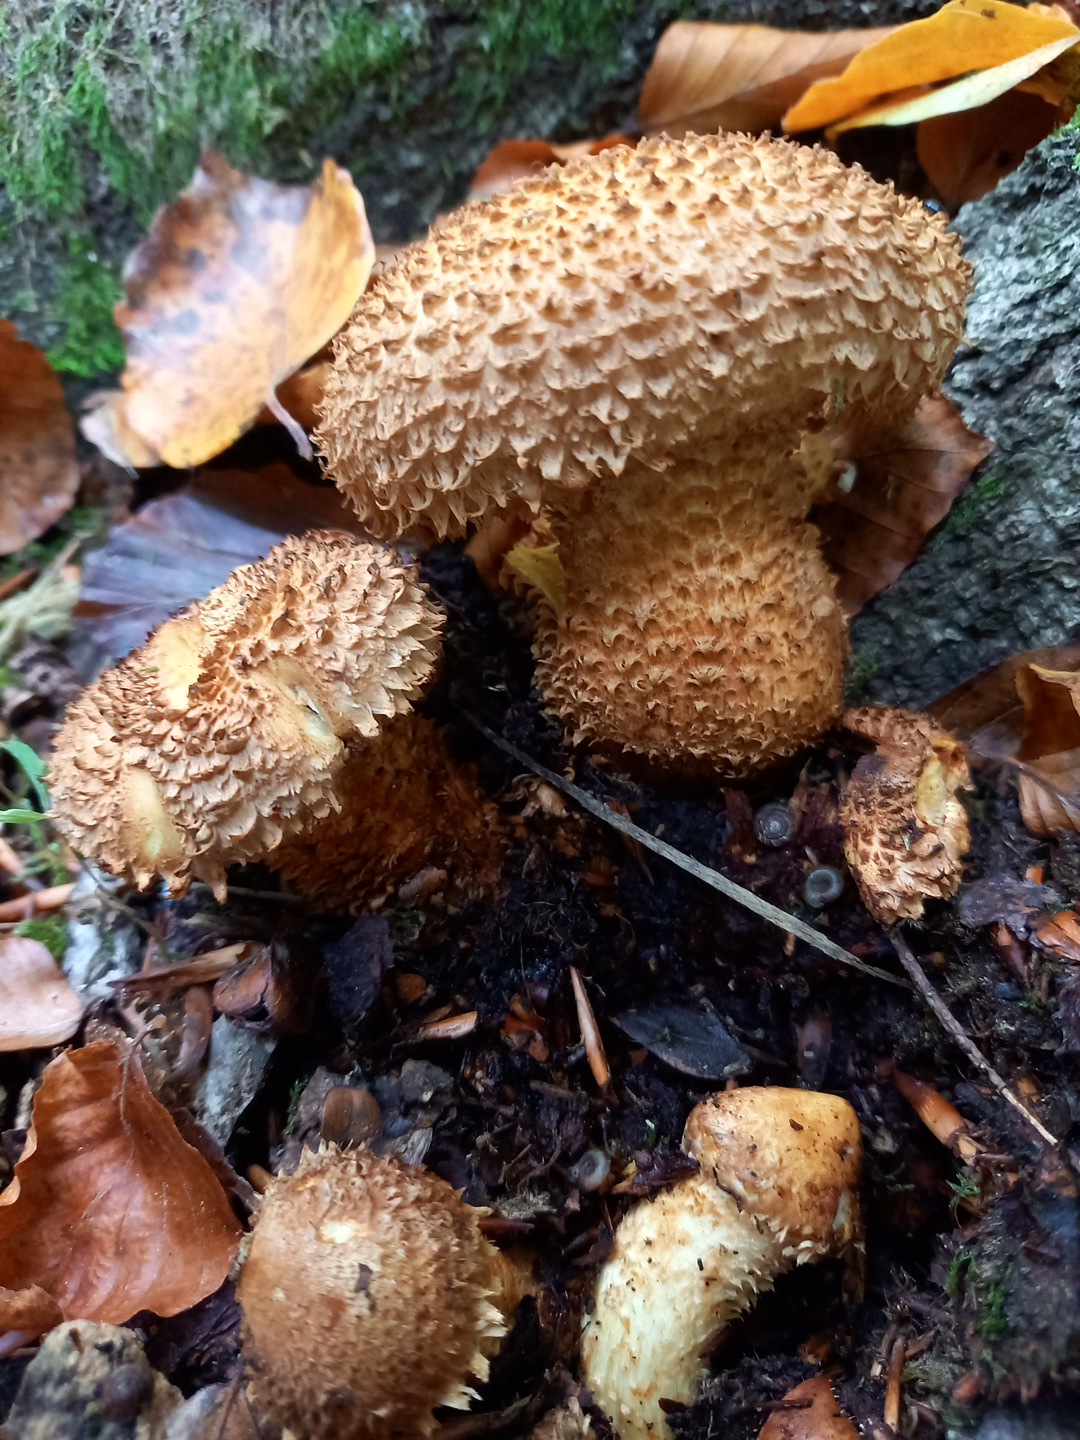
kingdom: Fungi
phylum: Basidiomycota
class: Agaricomycetes
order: Agaricales
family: Strophariaceae
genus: Pholiota
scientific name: Pholiota squarrosa
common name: krumskællet skælhat
